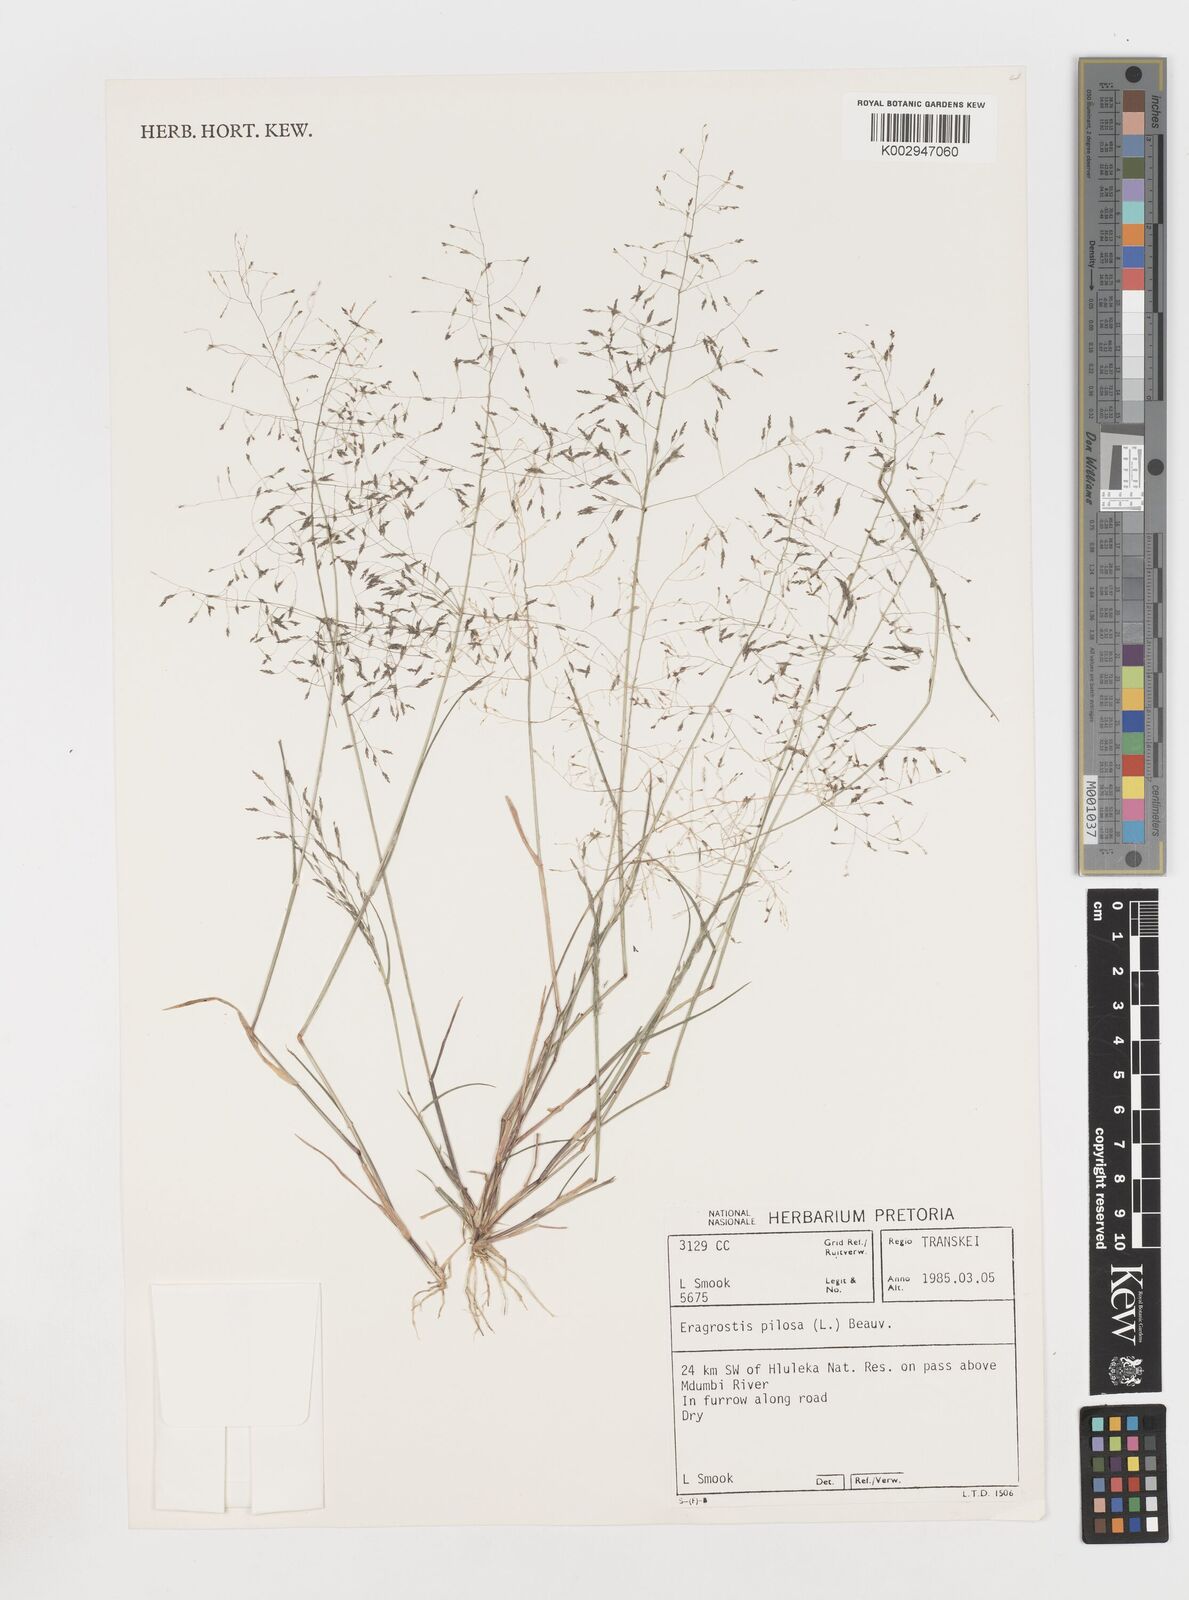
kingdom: Plantae
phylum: Tracheophyta
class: Liliopsida
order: Poales
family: Poaceae
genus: Eragrostis
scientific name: Eragrostis pilosa
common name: Indian lovegrass
